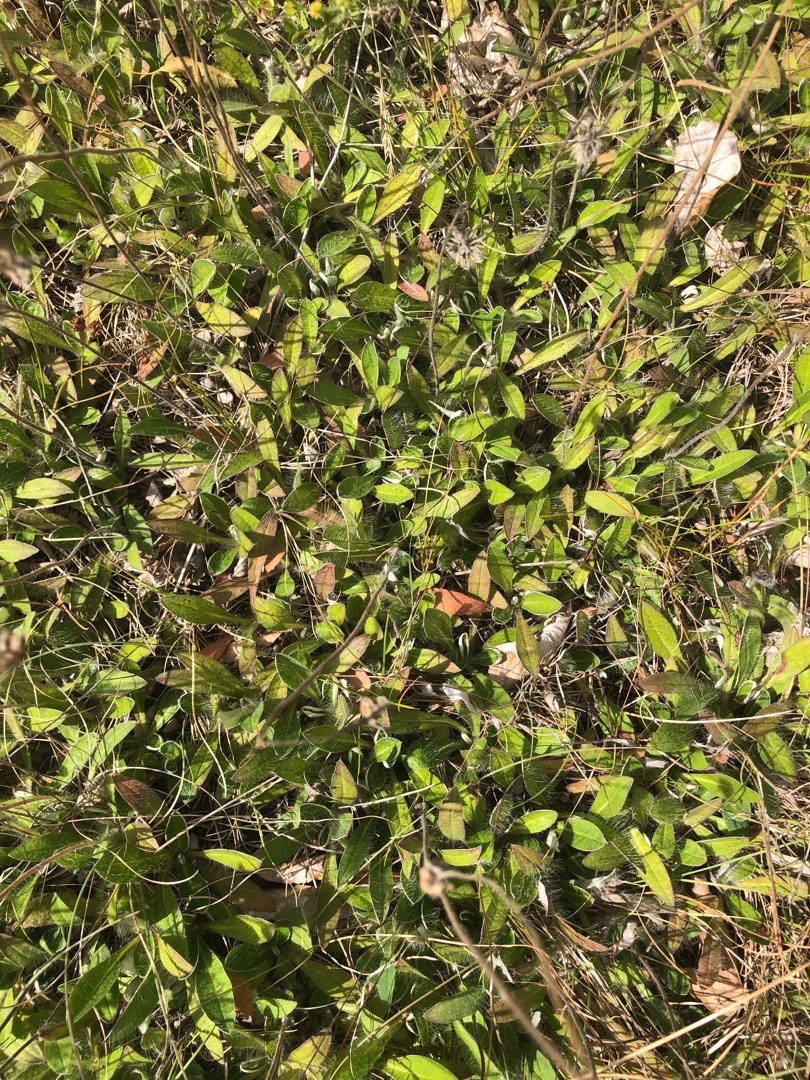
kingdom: Plantae
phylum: Tracheophyta
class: Magnoliopsida
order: Asterales
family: Asteraceae
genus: Pilosella
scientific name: Pilosella officinarum
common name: Håret høgeurt
